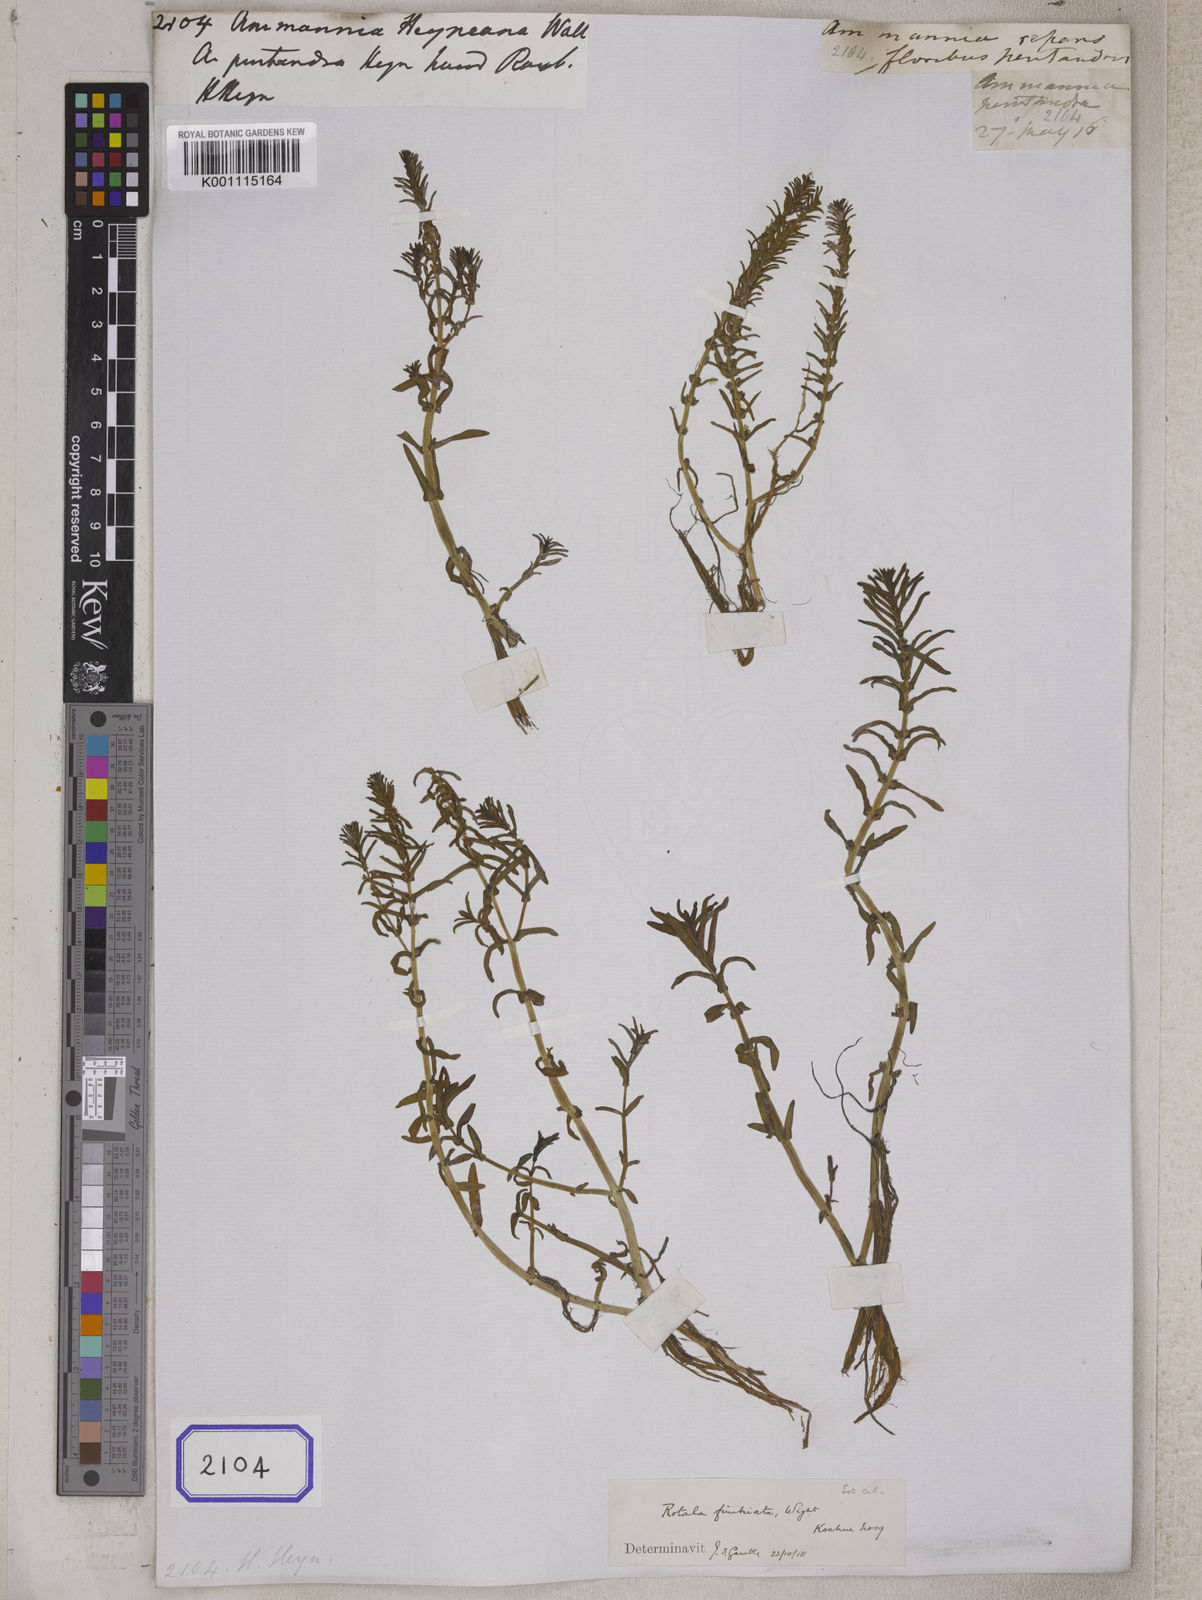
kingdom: Plantae
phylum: Tracheophyta
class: Magnoliopsida
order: Myrtales
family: Lythraceae
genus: Rotala
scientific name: Rotala densiflora
